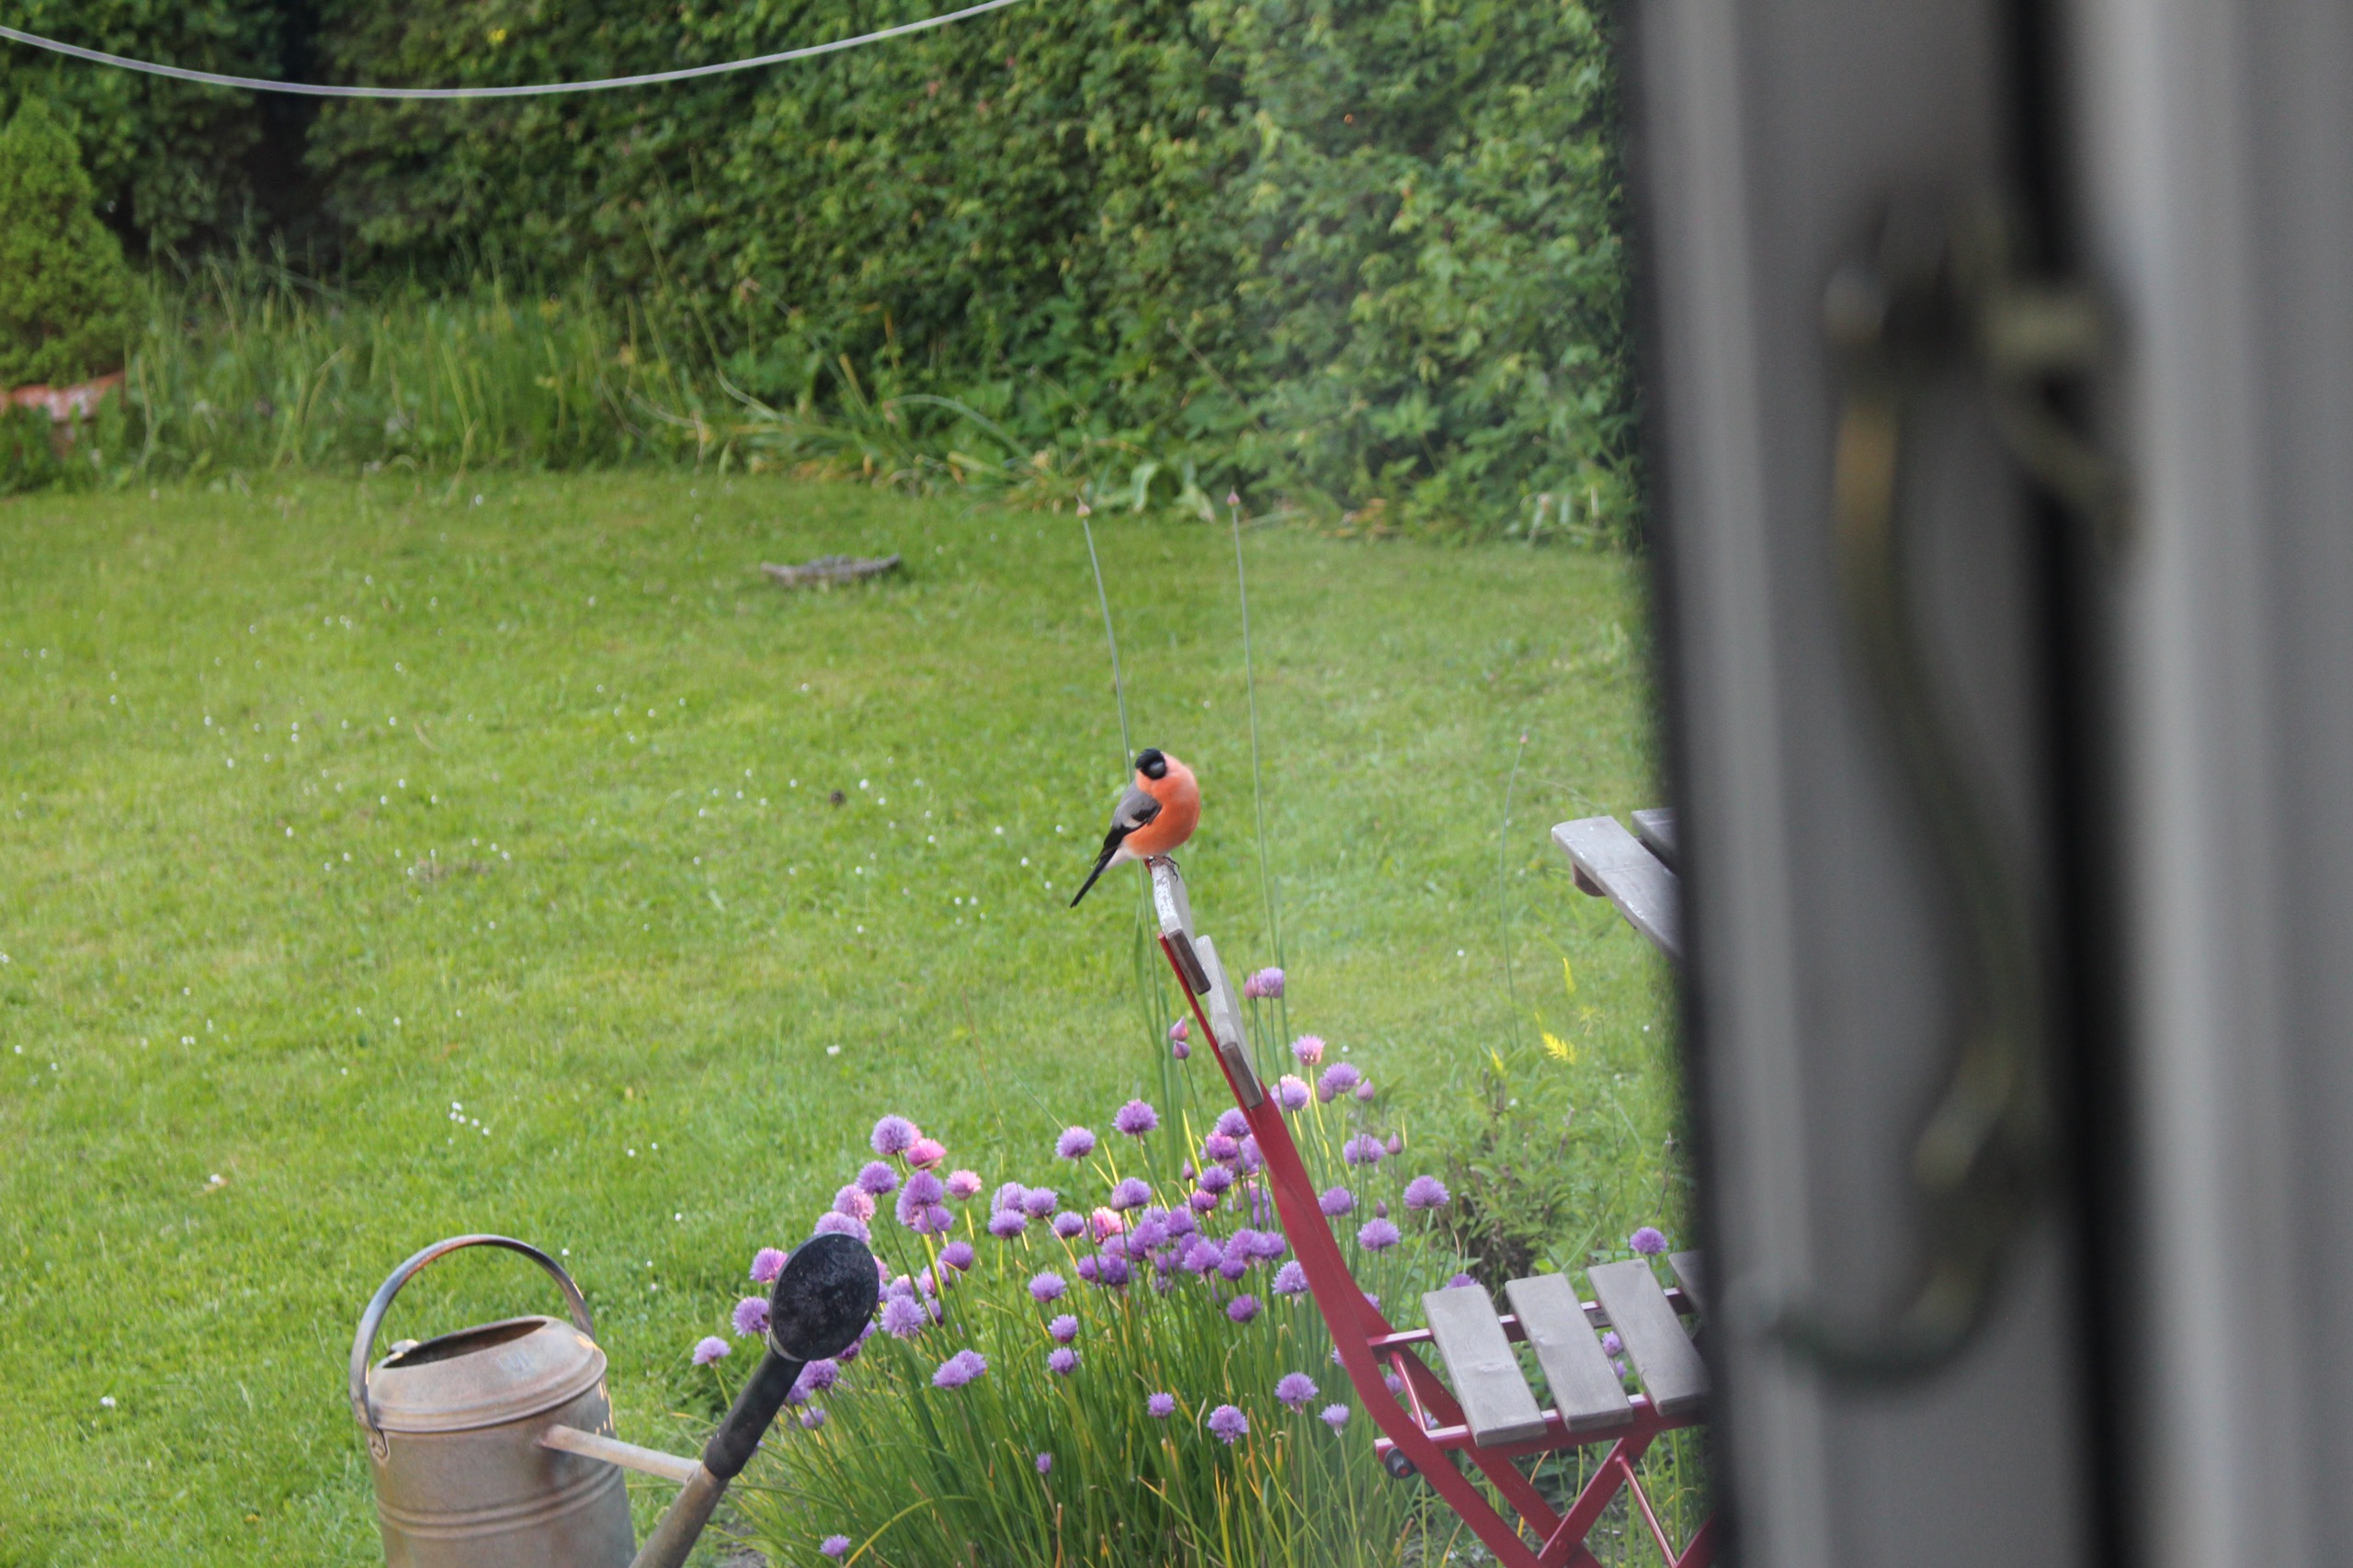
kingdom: Animalia
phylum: Chordata
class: Aves
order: Passeriformes
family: Fringillidae
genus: Pyrrhula
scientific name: Pyrrhula pyrrhula
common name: Dompap
